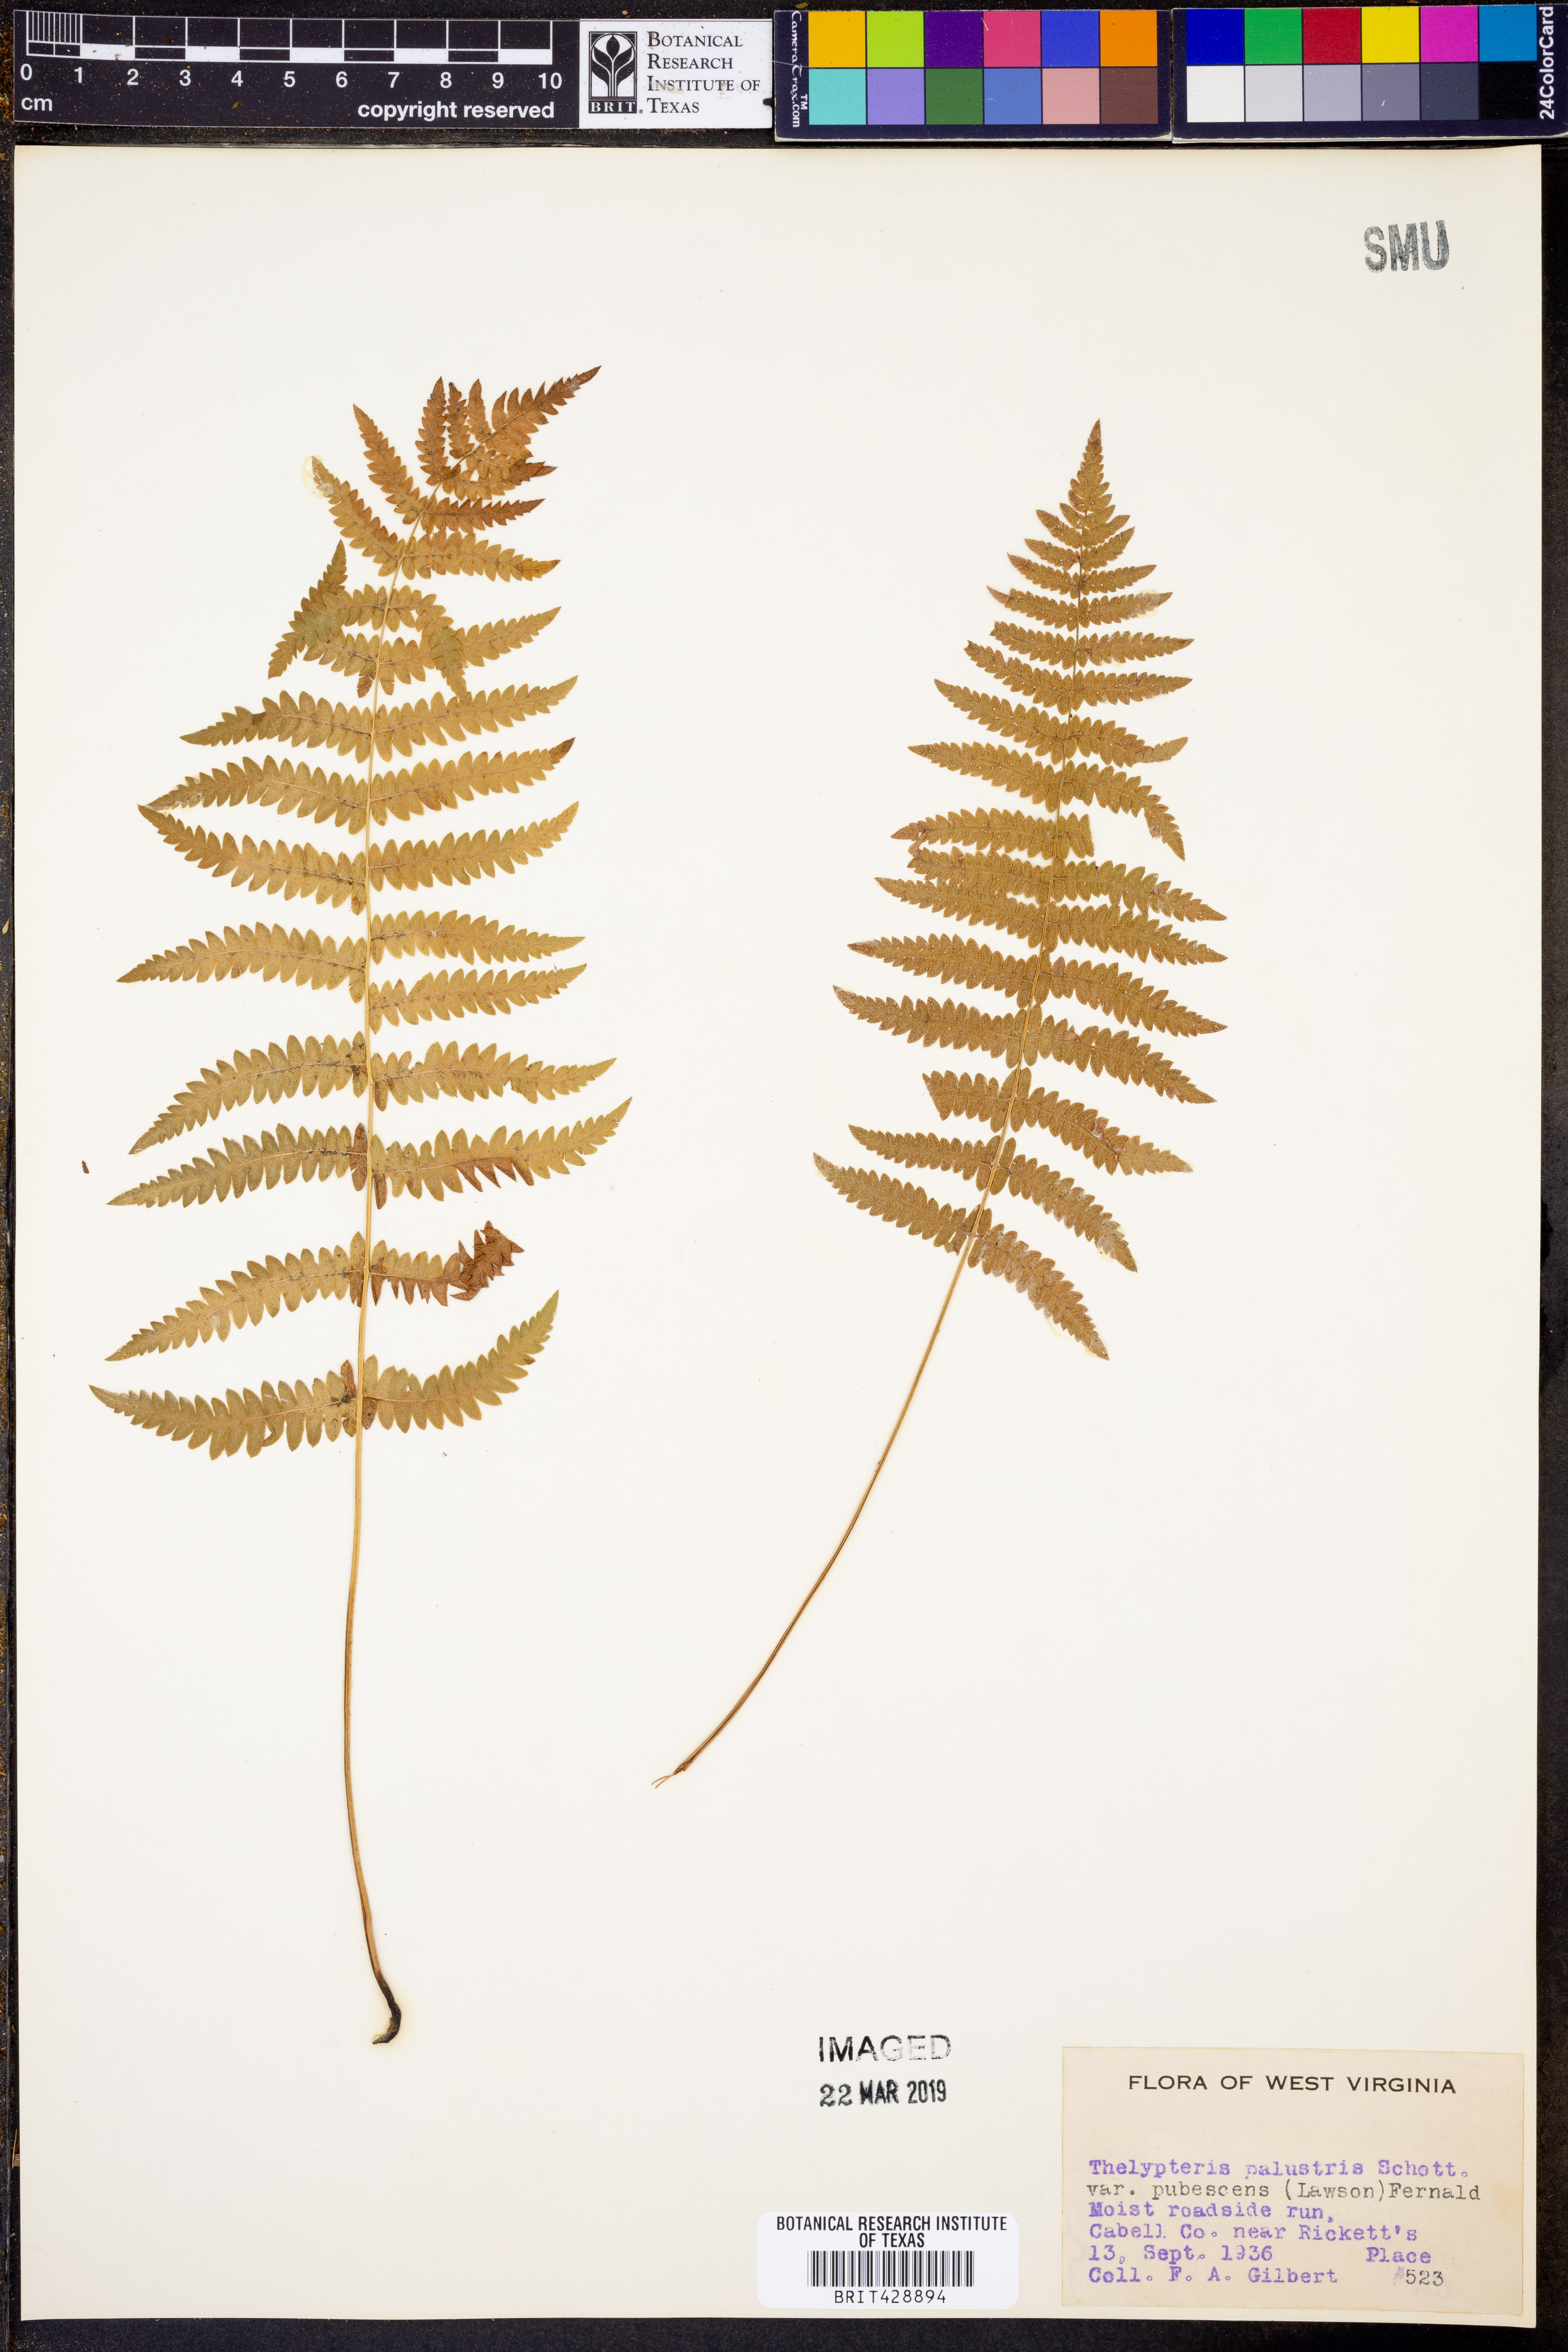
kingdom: Plantae
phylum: Tracheophyta
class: Polypodiopsida
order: Polypodiales
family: Thelypteridaceae
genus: Thelypteris
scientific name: Thelypteris palustris
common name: Marsh fern
